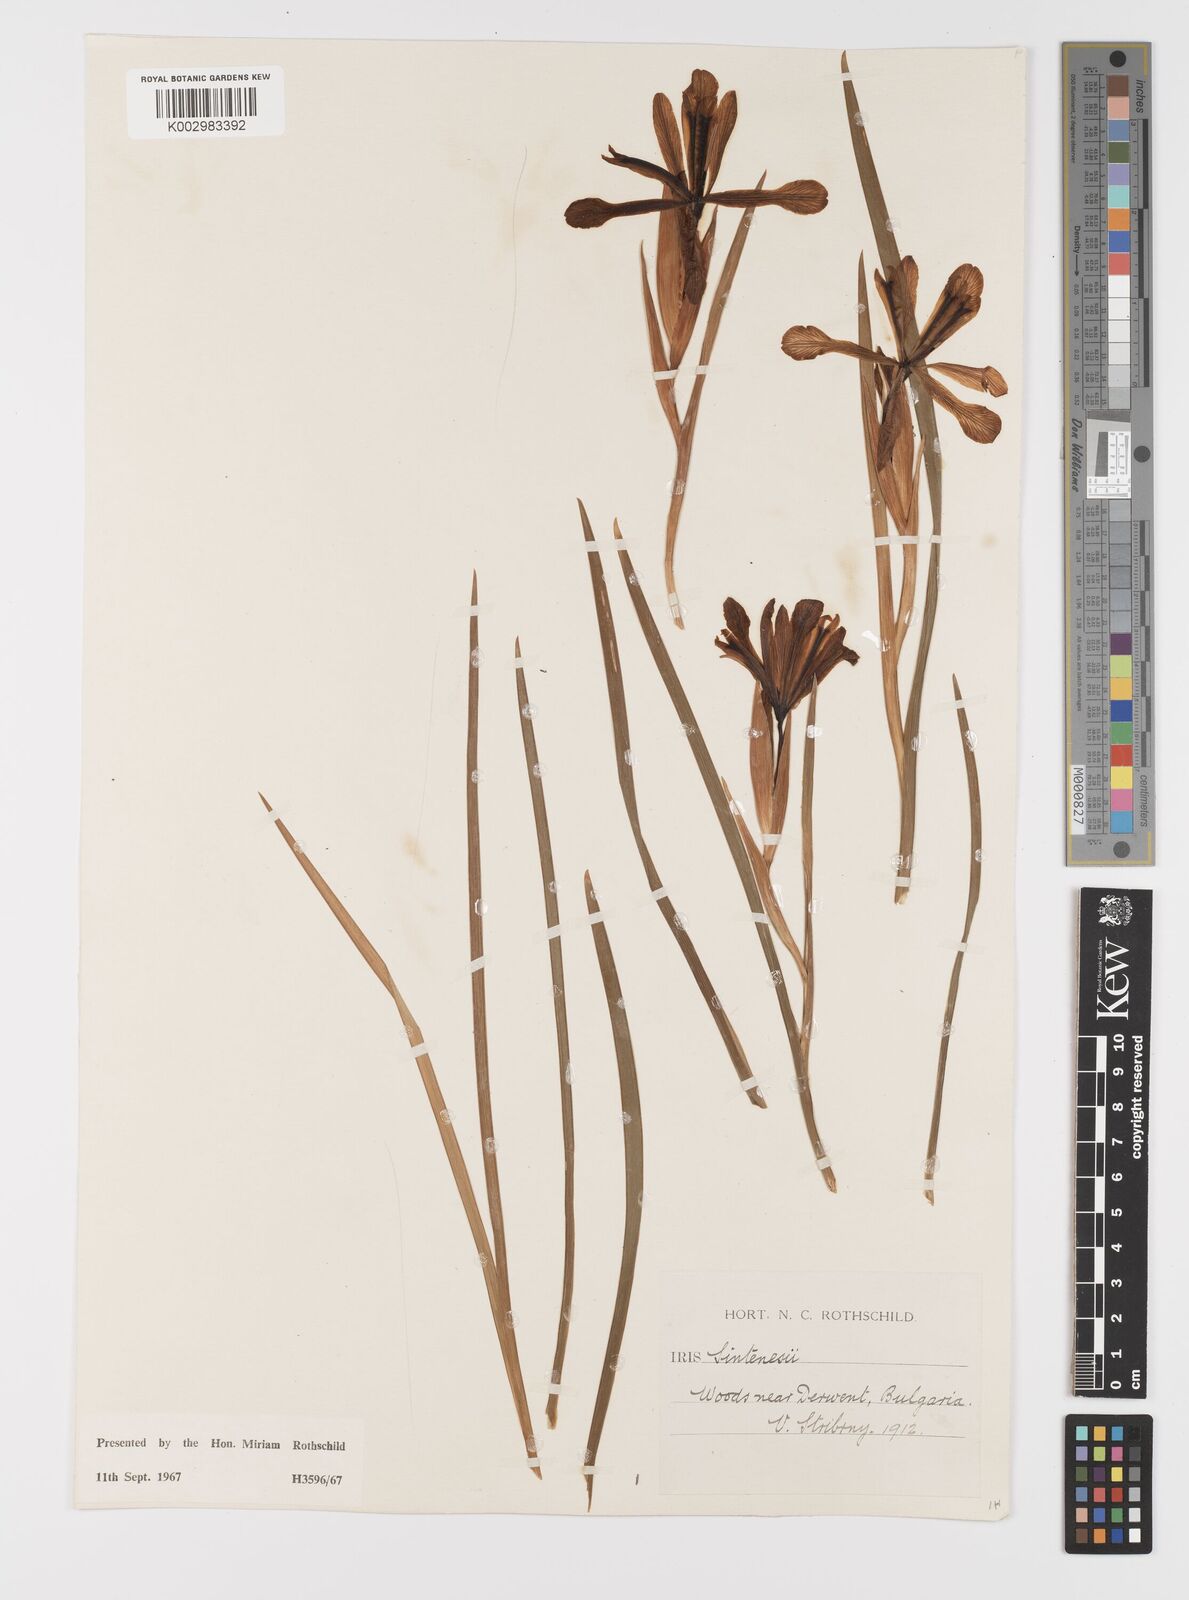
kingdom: Plantae
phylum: Tracheophyta
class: Liliopsida
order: Asparagales
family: Iridaceae
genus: Iris
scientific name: Iris sintenisii
